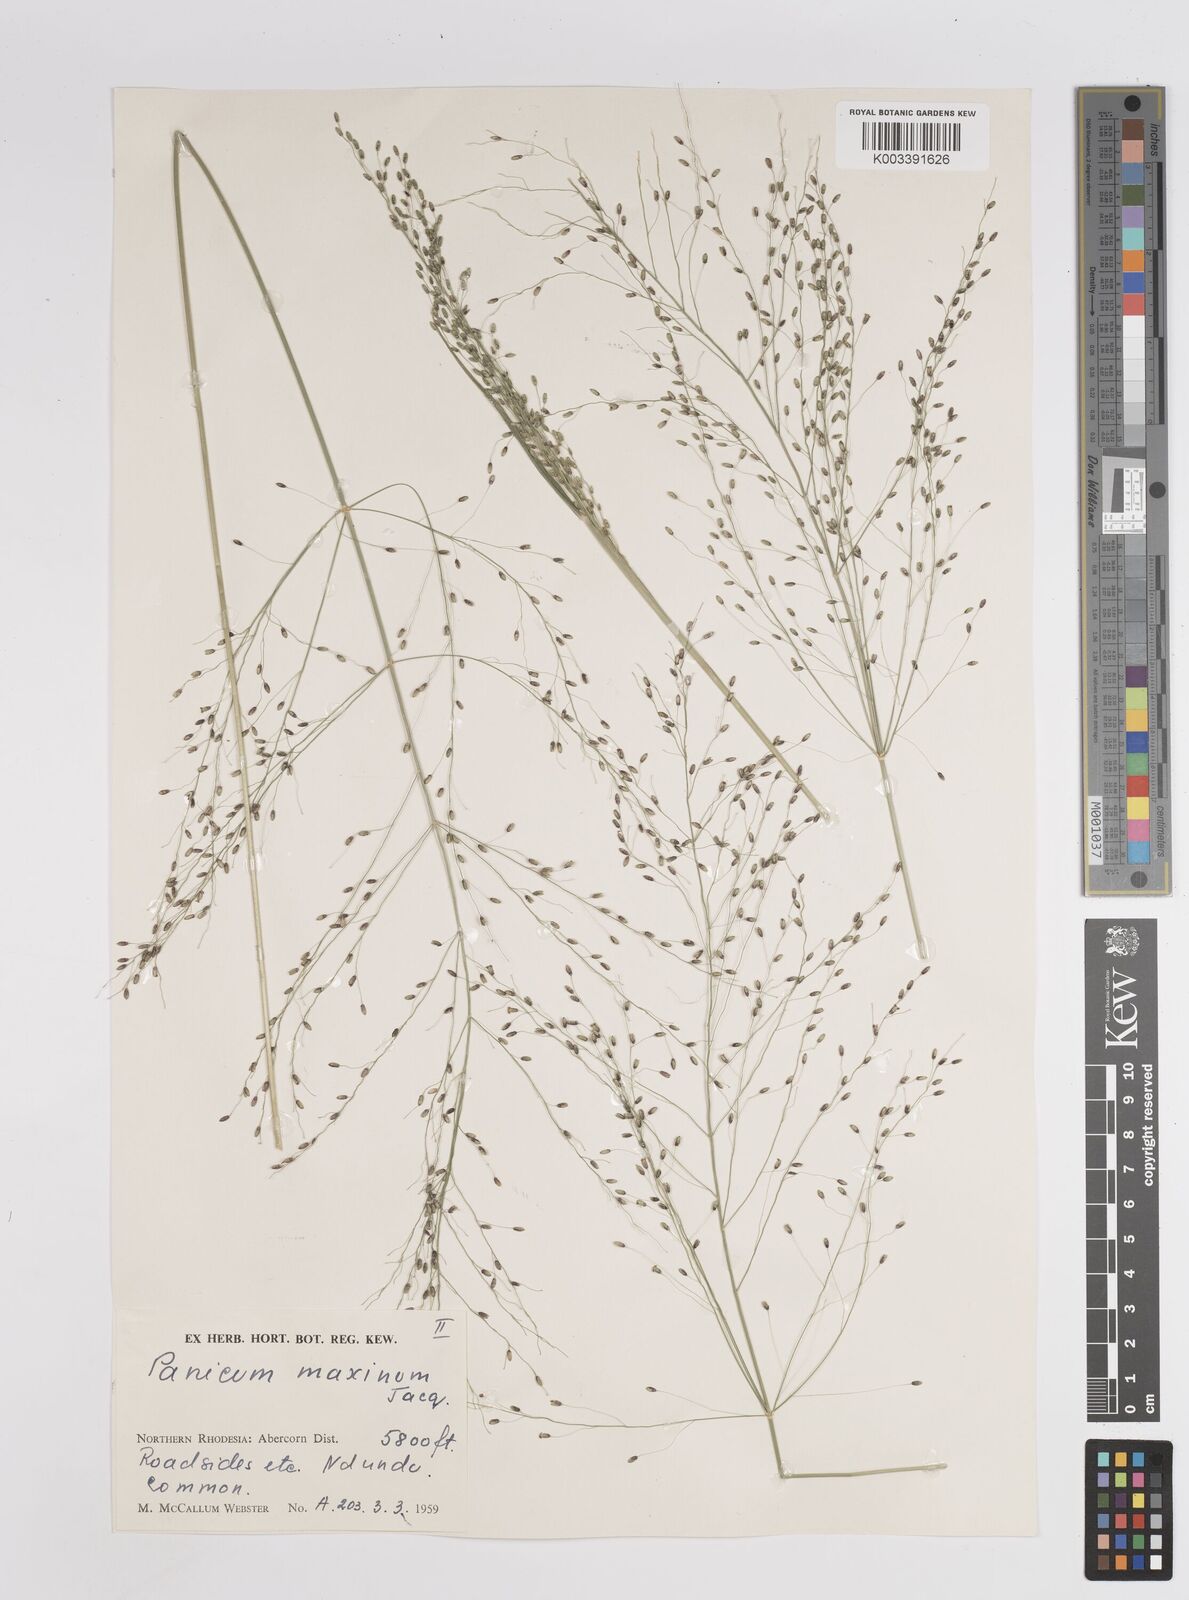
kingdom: Plantae
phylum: Tracheophyta
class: Liliopsida
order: Poales
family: Poaceae
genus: Megathyrsus
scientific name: Megathyrsus maximus
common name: Guineagrass
